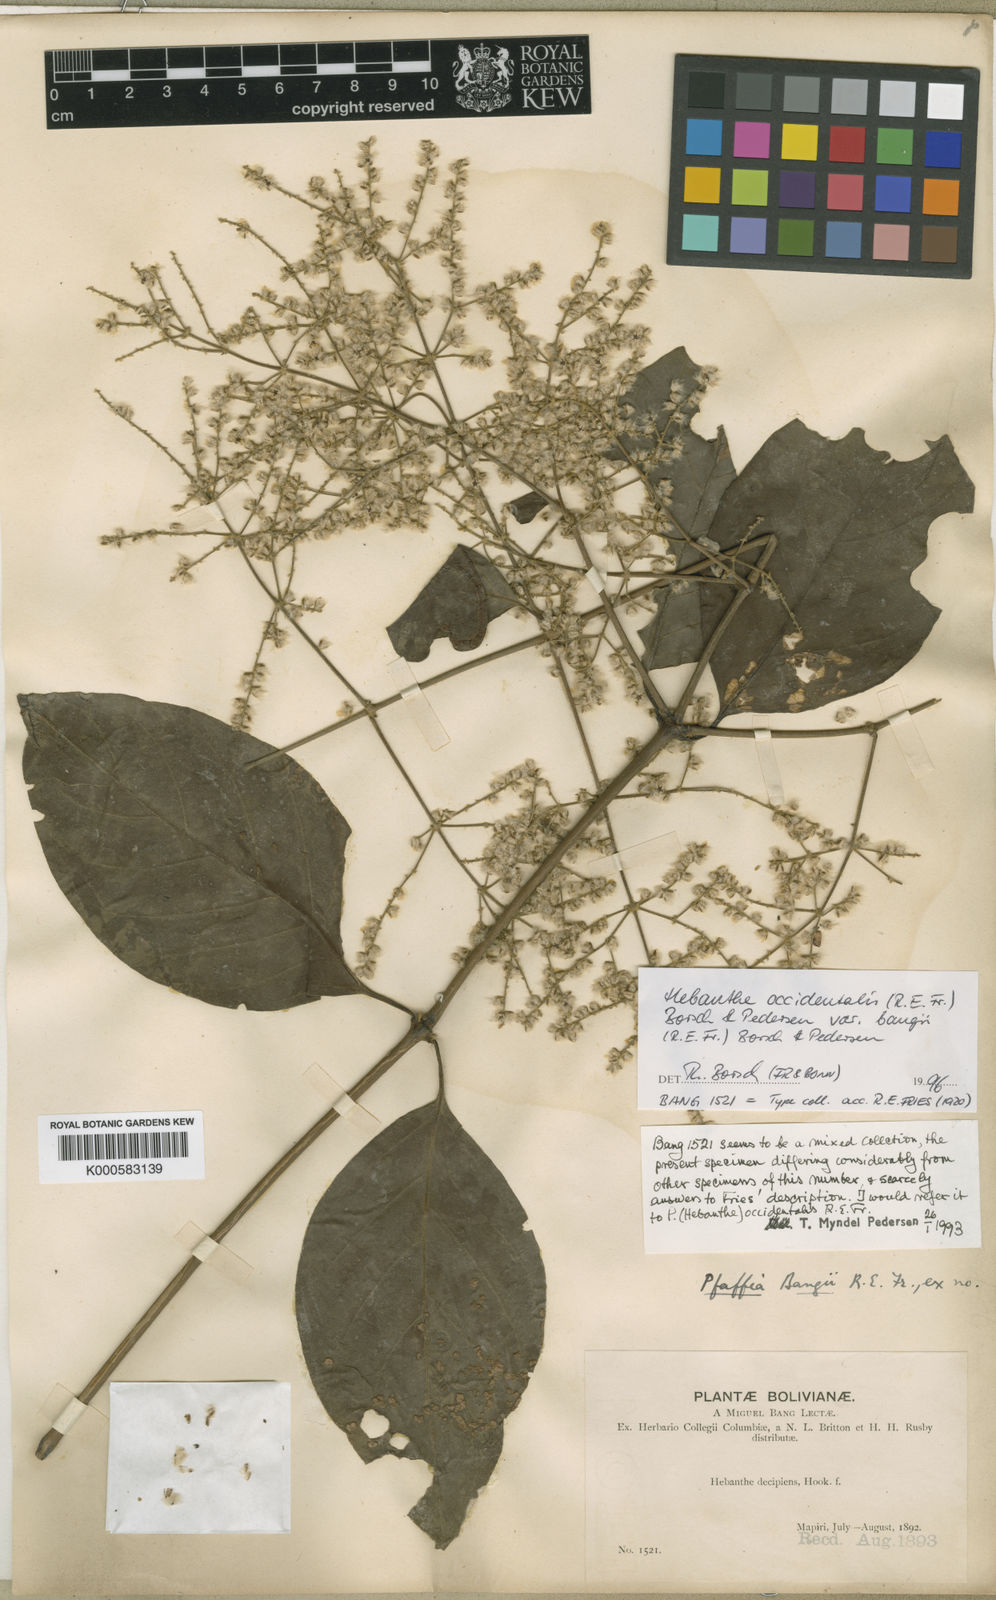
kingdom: Plantae
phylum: Tracheophyta
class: Magnoliopsida
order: Caryophyllales
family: Amaranthaceae
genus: Hebanthe
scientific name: Hebanthe occidentalis
